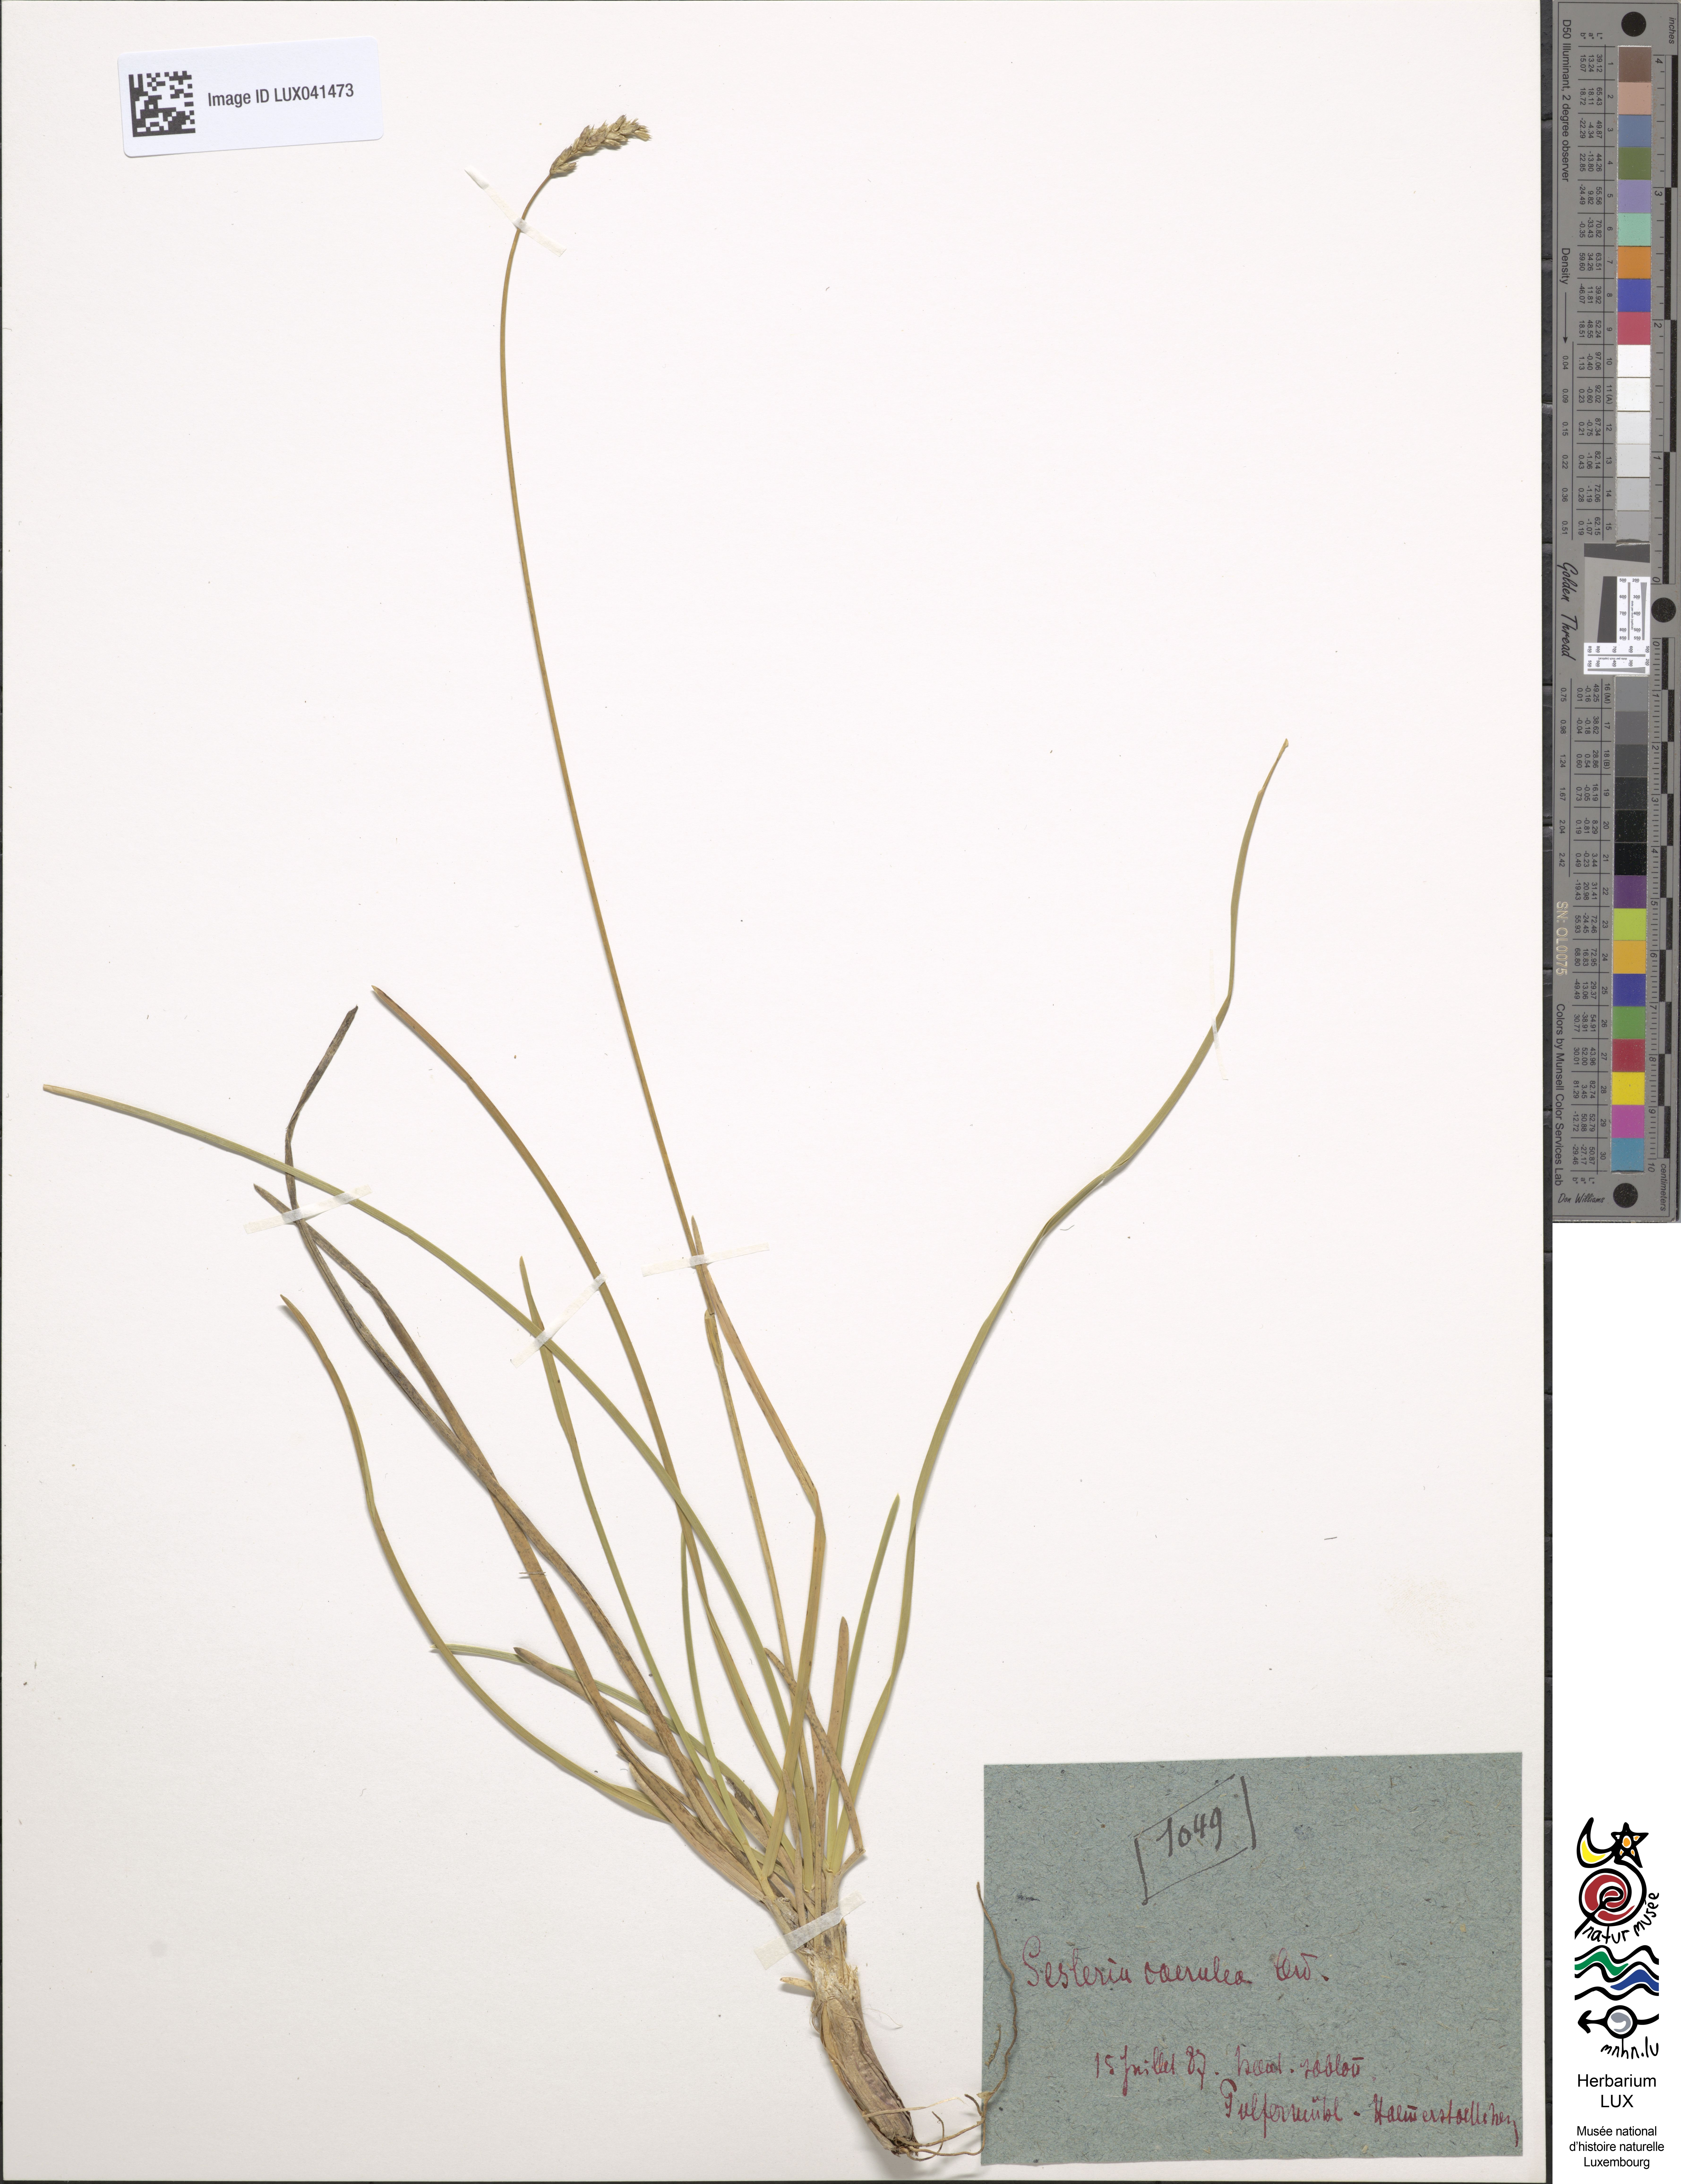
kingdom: Plantae
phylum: Tracheophyta
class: Liliopsida
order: Poales
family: Poaceae
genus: Sesleria
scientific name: Sesleria albicans
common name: Blue moor-grass
